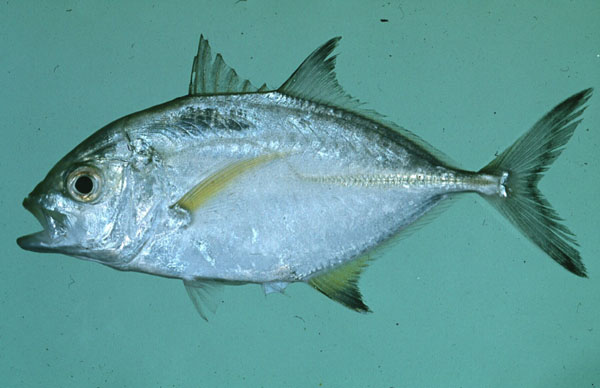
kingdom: Animalia
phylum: Chordata
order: Perciformes
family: Carangidae
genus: Caranx
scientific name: Caranx melampygus
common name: Bluefin trevally
